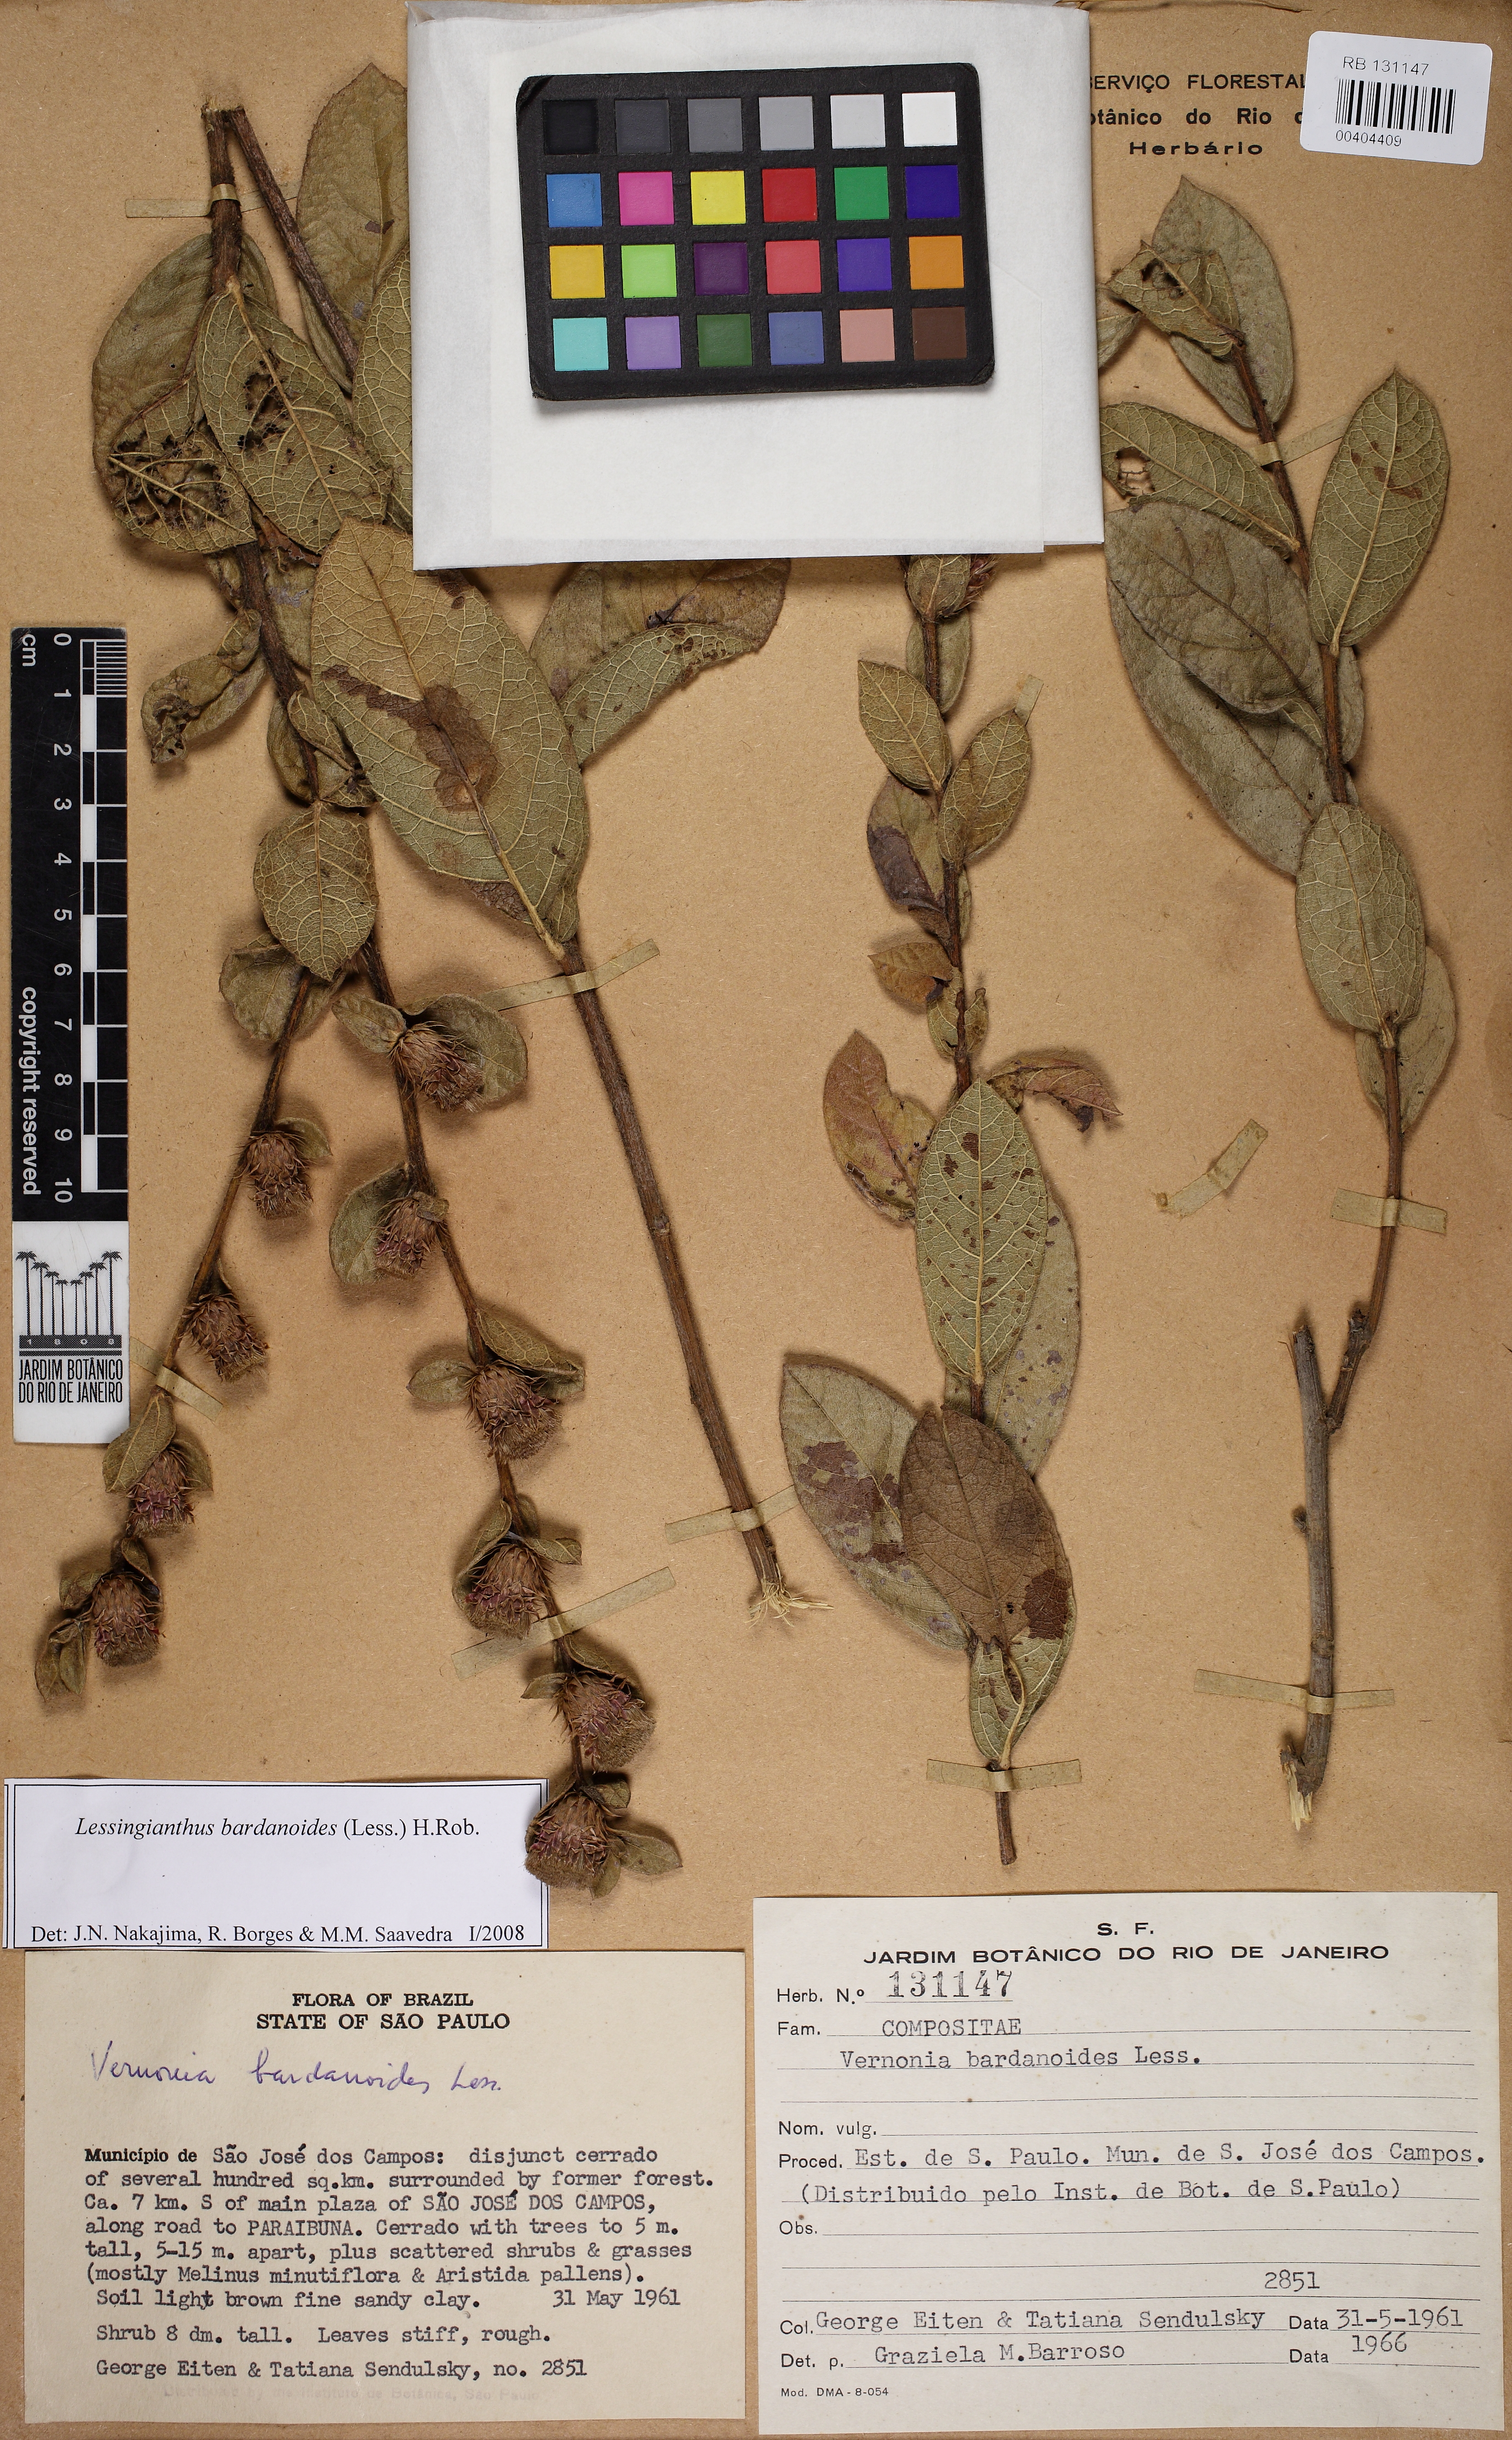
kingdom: Plantae
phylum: Tracheophyta
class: Magnoliopsida
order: Asterales
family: Asteraceae
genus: Lessingianthus
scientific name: Lessingianthus bardanioides
